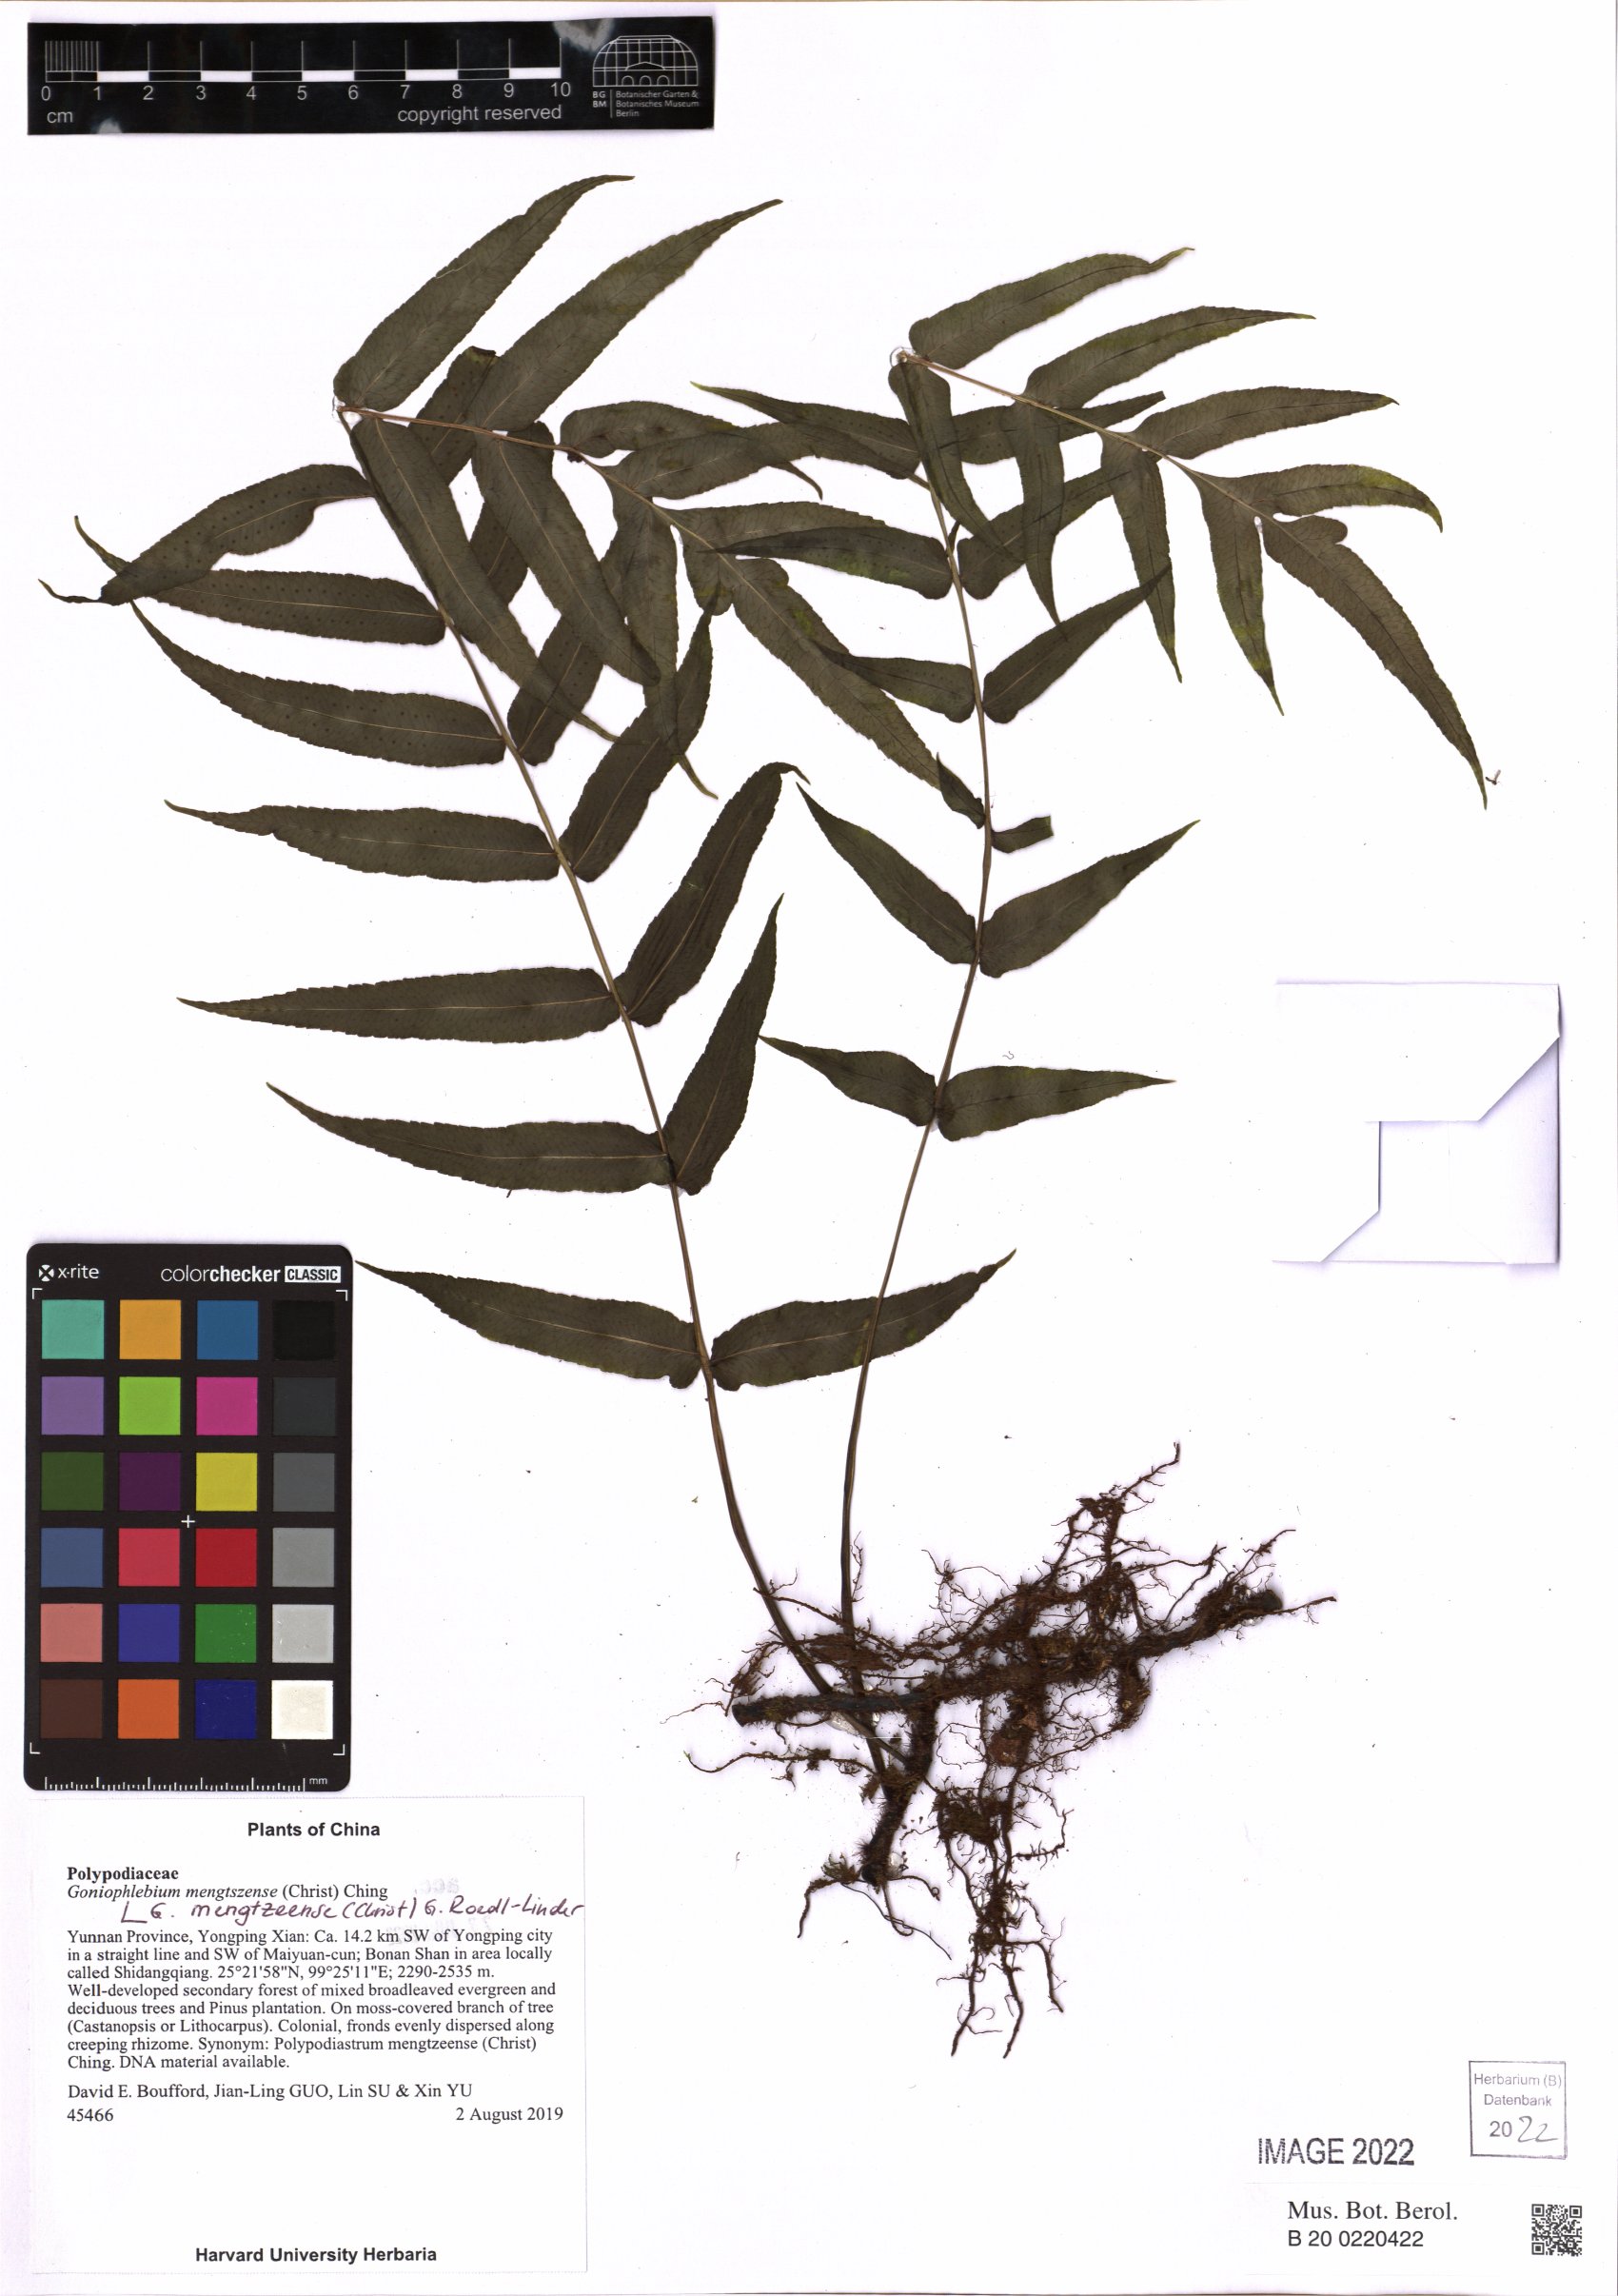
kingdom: Plantae
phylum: Tracheophyta
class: Polypodiopsida
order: Polypodiales
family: Polypodiaceae
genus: Goniophlebium
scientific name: Goniophlebium mengtzeense
